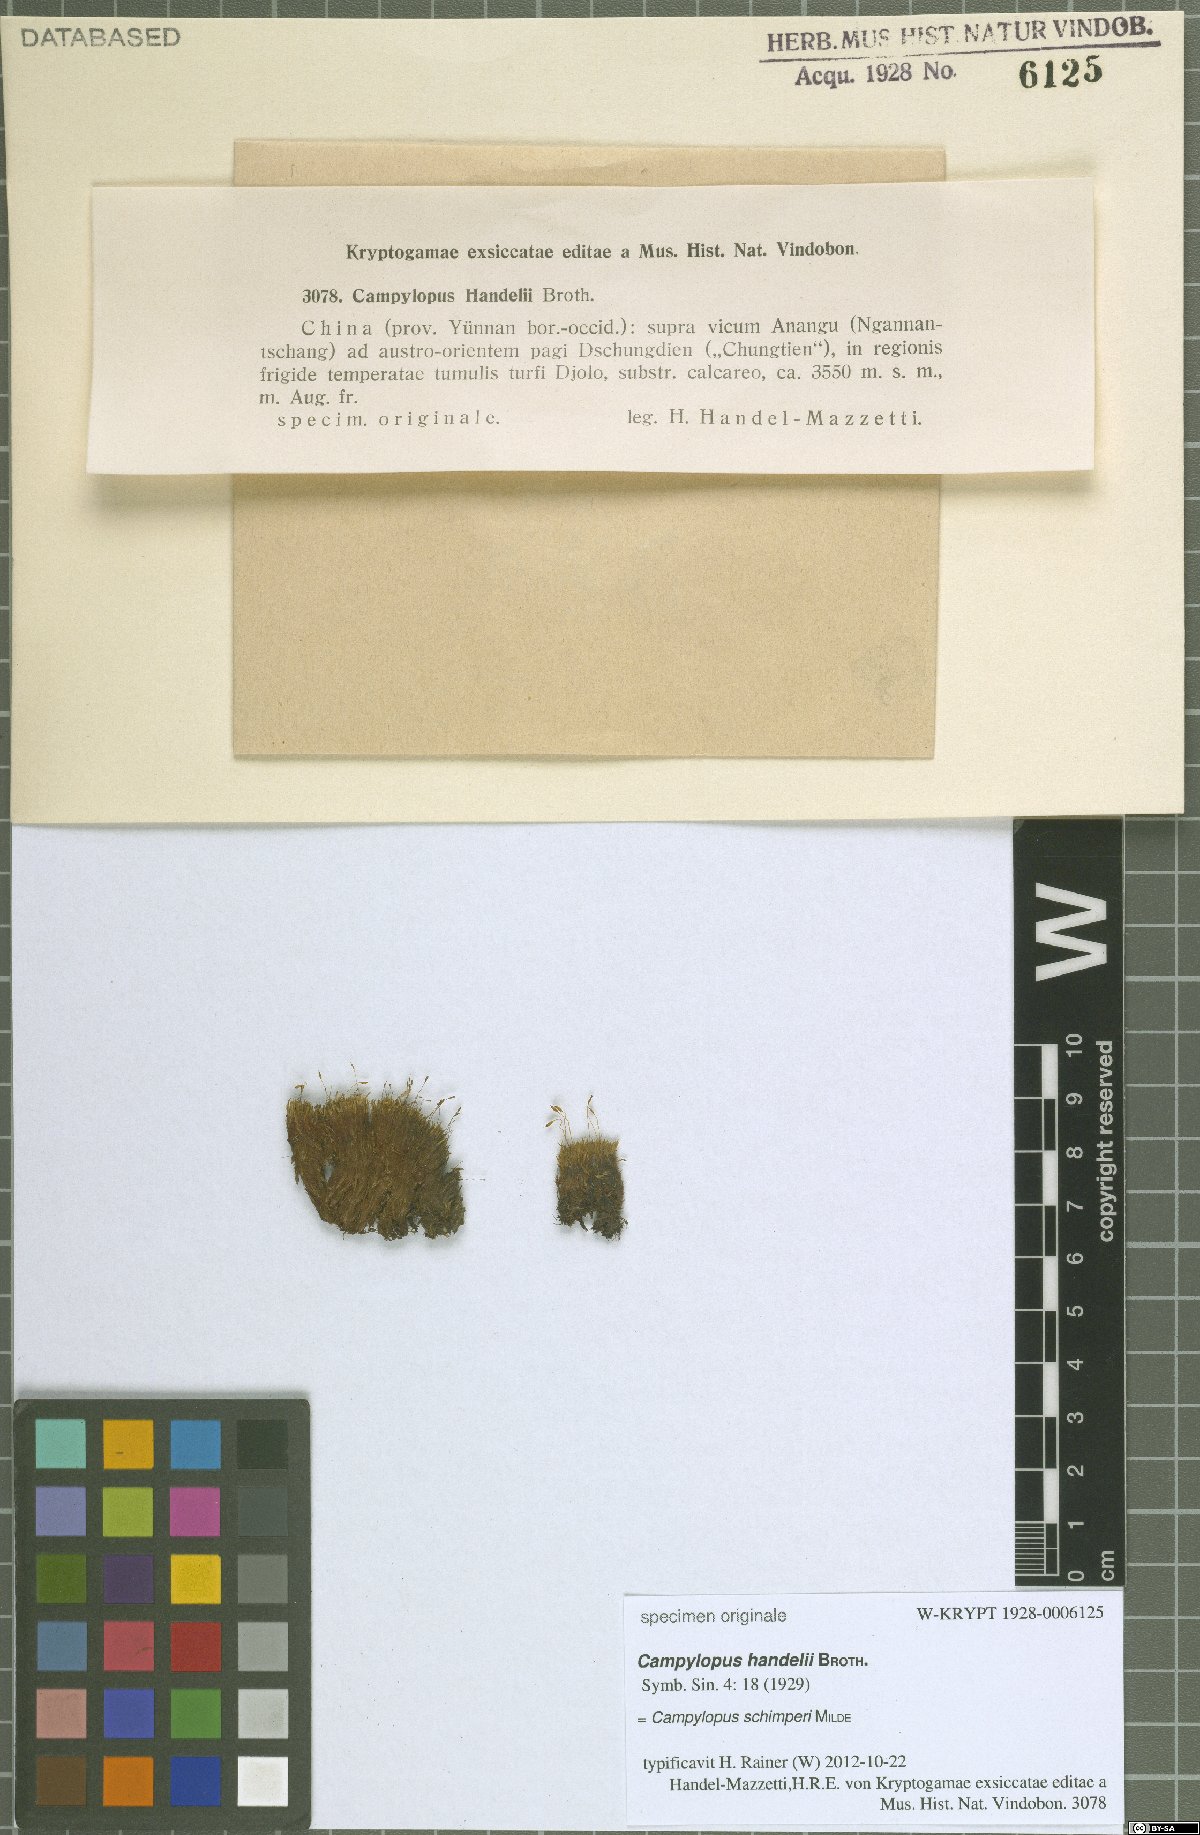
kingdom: Plantae
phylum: Bryophyta
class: Bryopsida
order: Dicranales
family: Leucobryaceae
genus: Campylopus
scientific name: Campylopus schimperi
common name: Schimper's swan-neck moss
